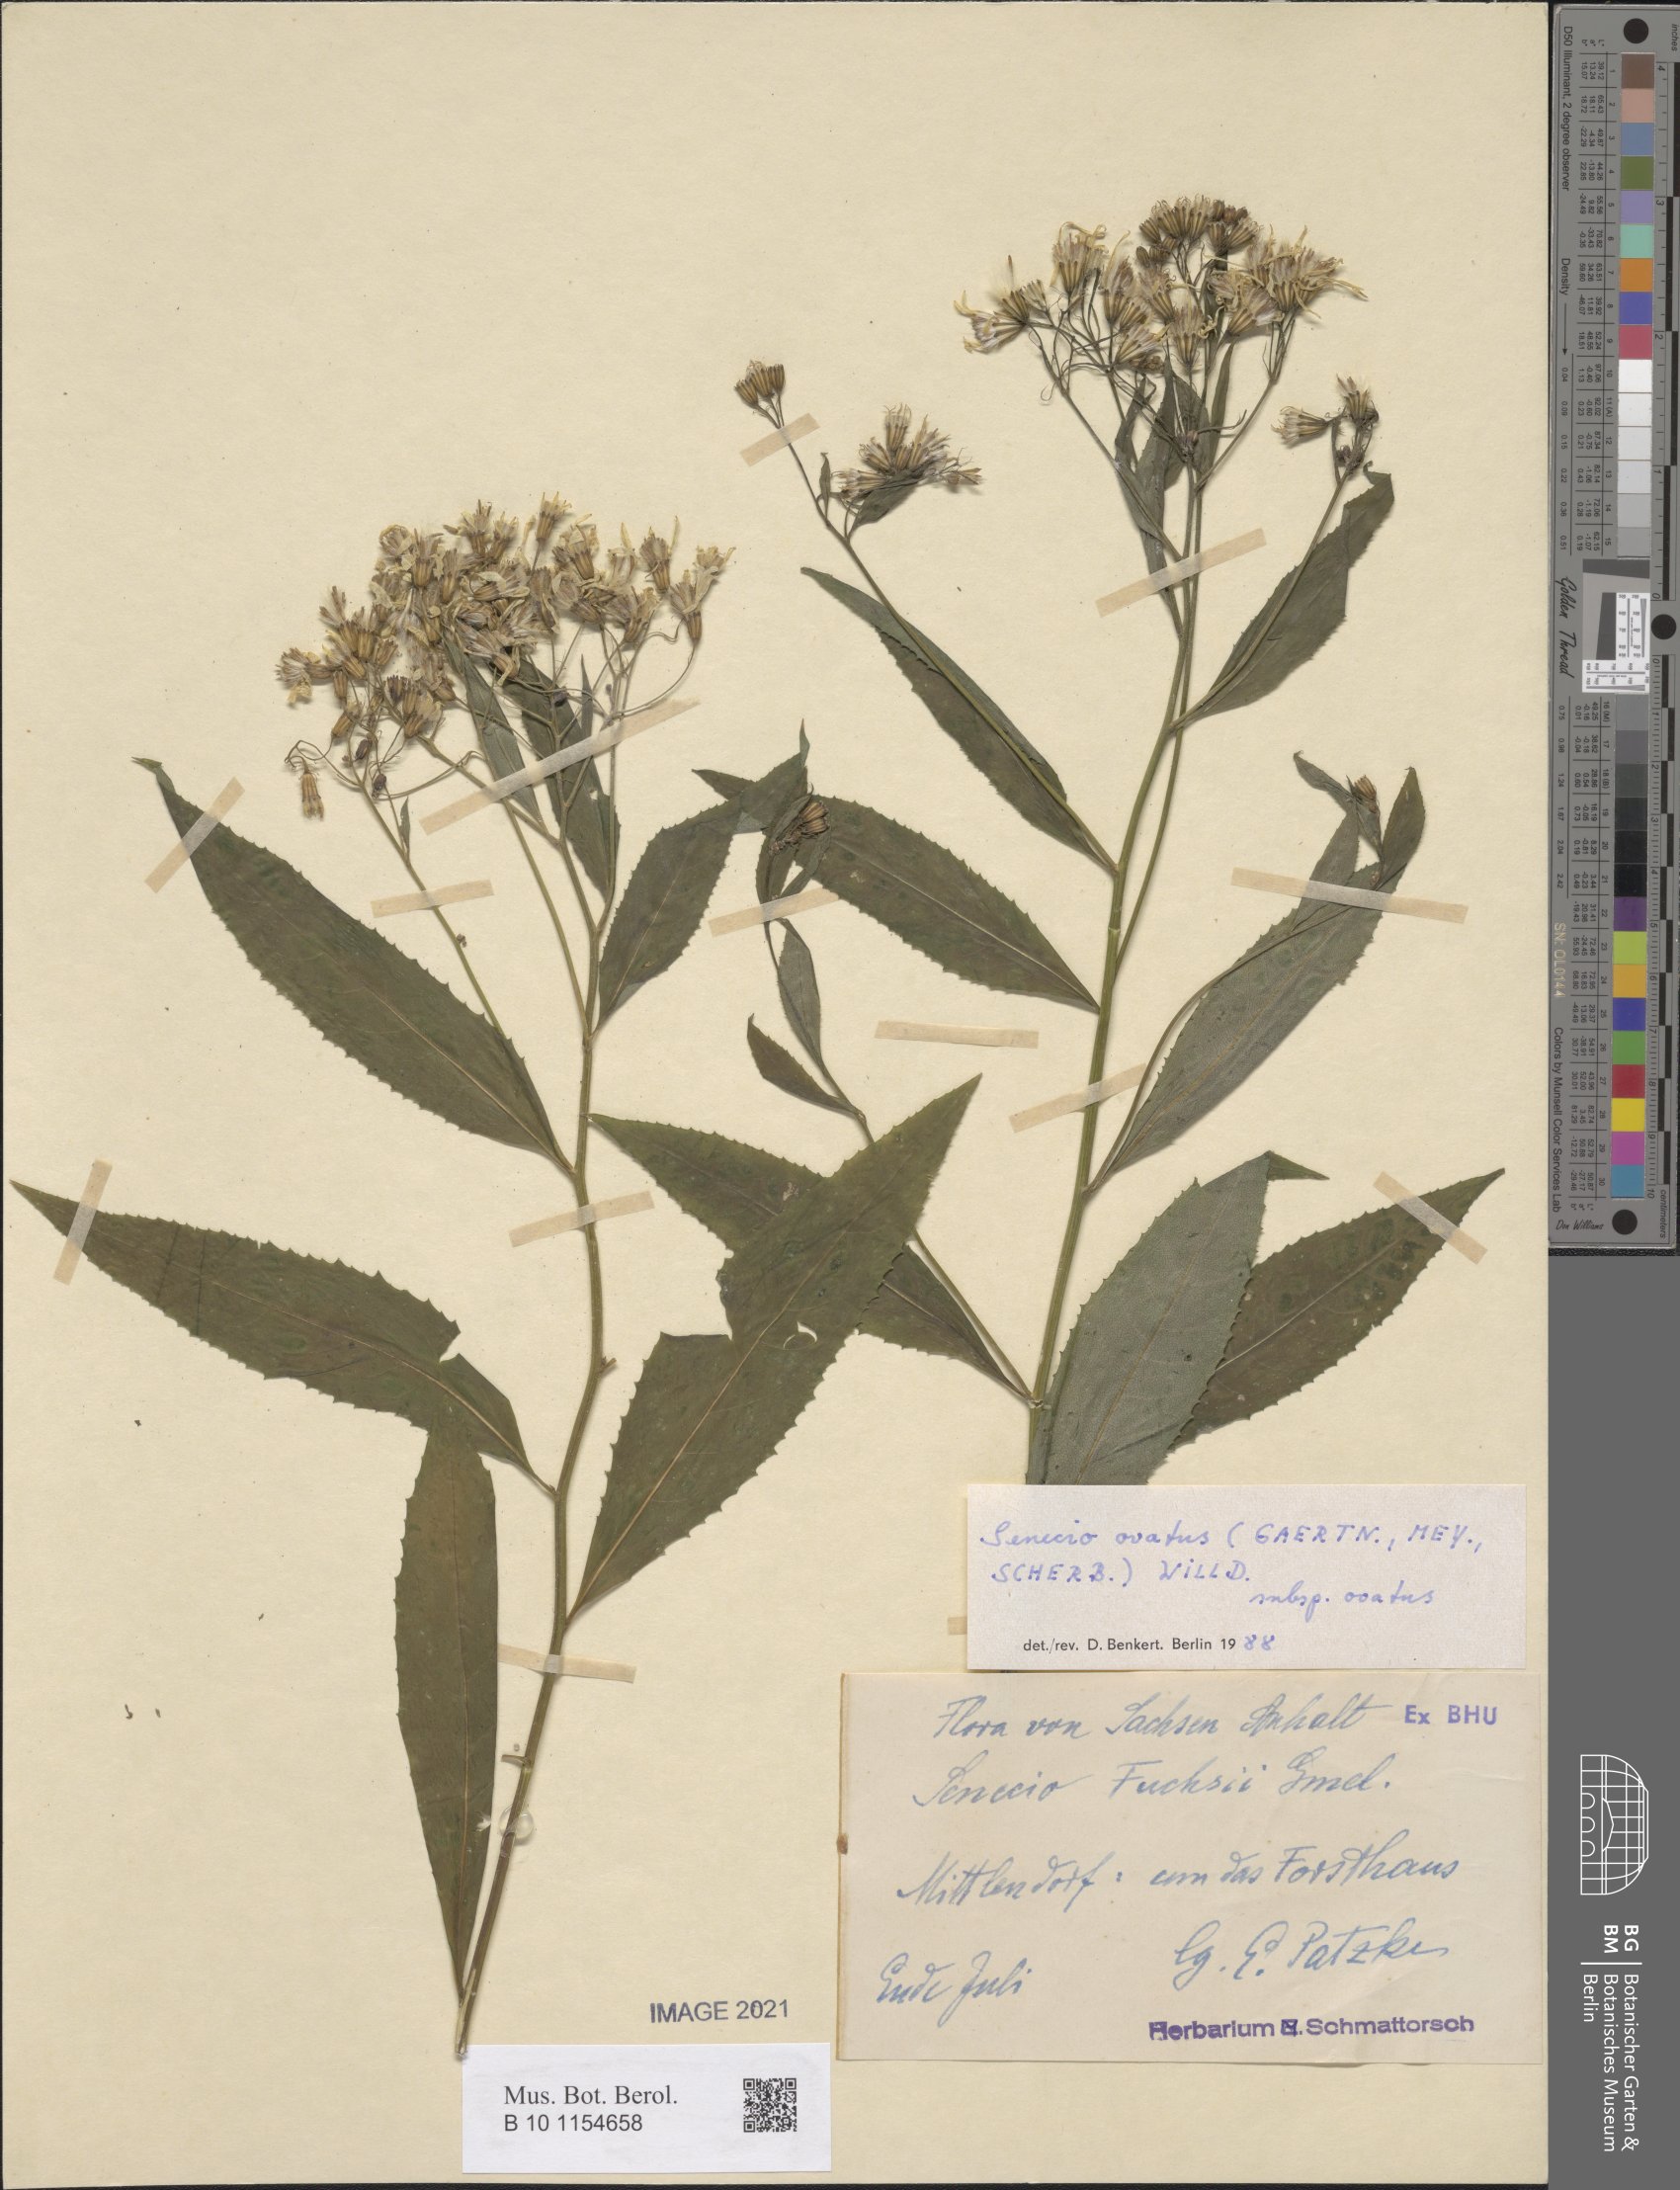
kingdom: Plantae
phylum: Tracheophyta
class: Magnoliopsida
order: Asterales
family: Asteraceae
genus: Senecio
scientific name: Senecio ovatus
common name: Wood ragwort
